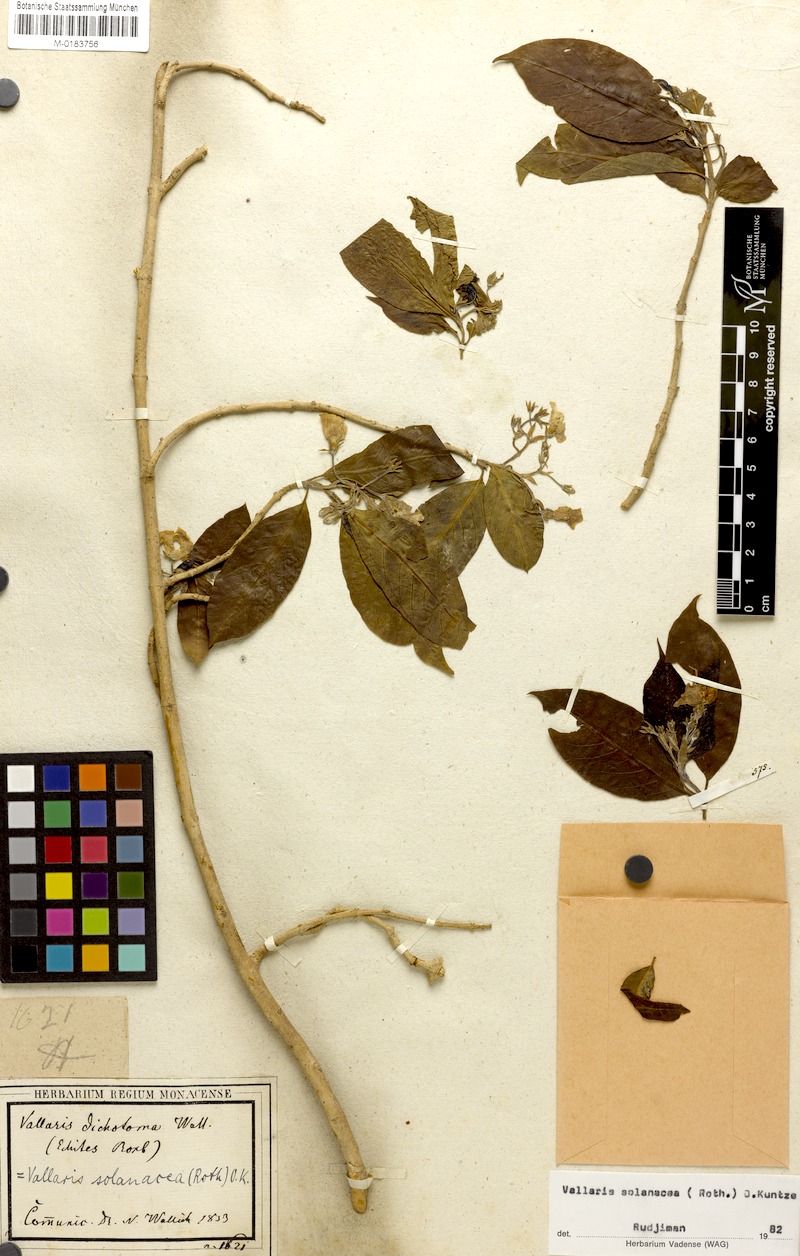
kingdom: Plantae
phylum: Tracheophyta
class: Magnoliopsida
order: Gentianales
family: Apocynaceae
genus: Vallaris
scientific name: Vallaris solanacea
